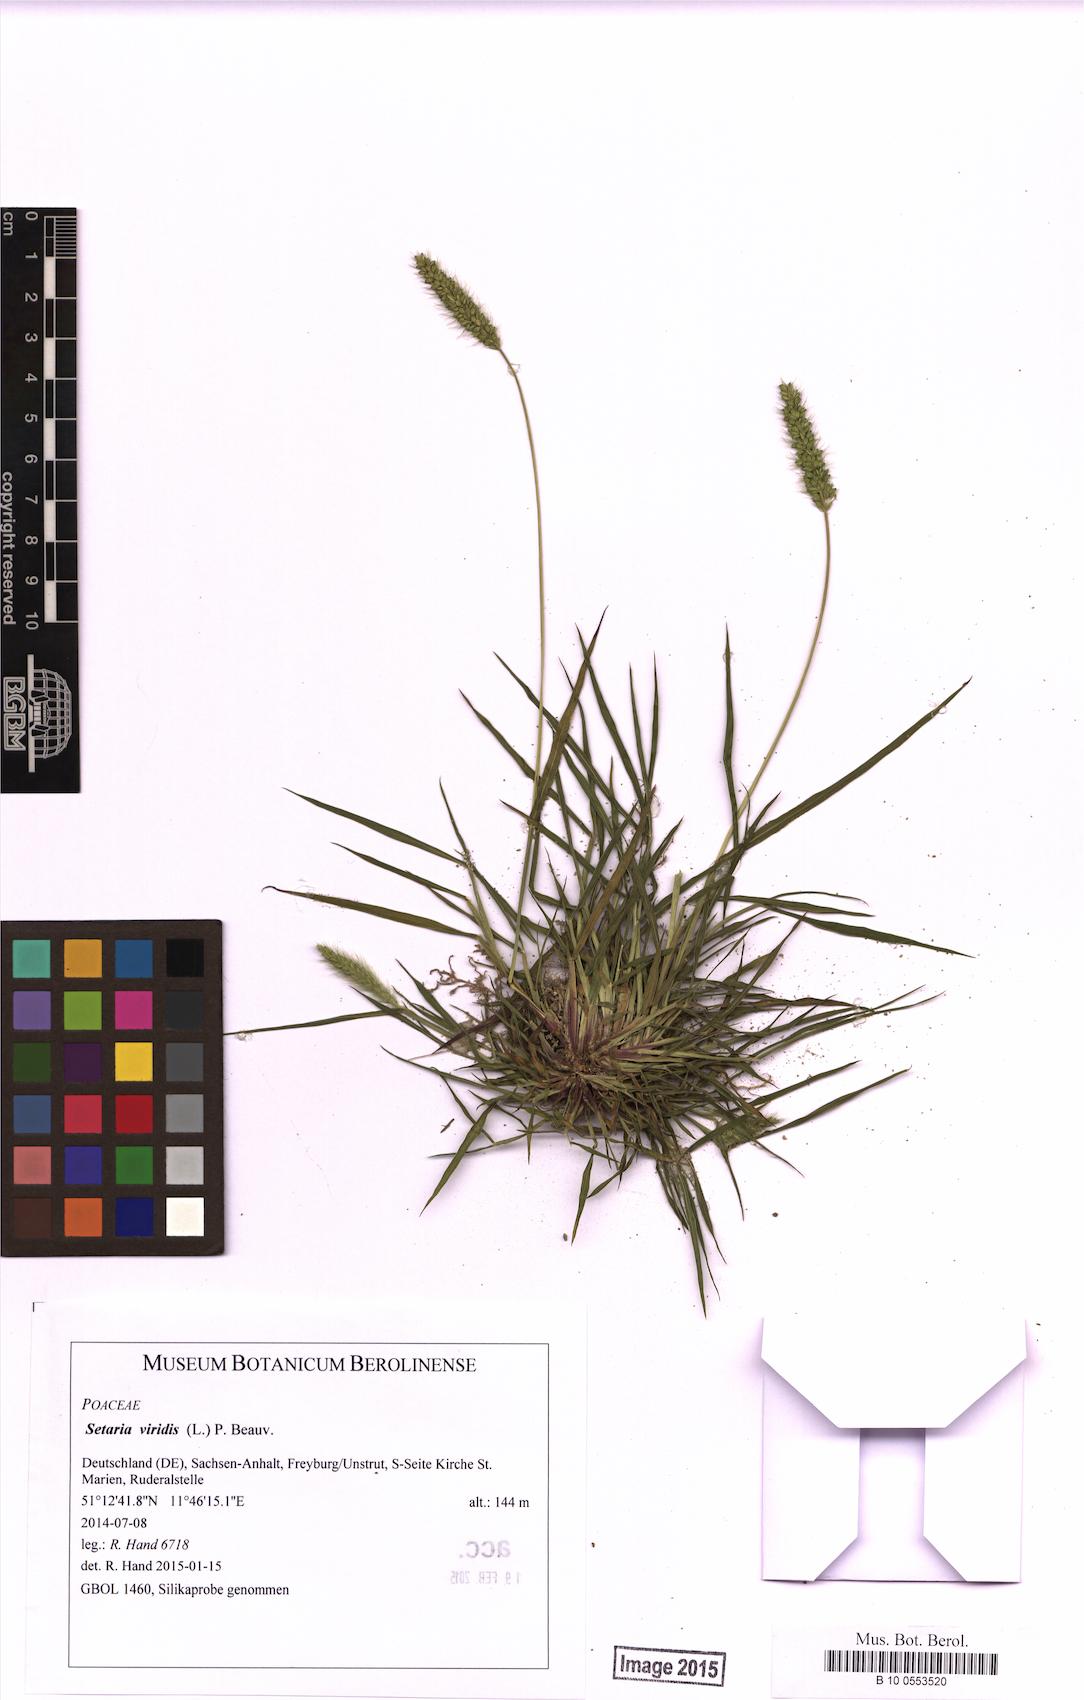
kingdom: Plantae
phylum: Tracheophyta
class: Liliopsida
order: Poales
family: Poaceae
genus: Setaria
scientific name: Setaria viridis
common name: Green bristlegrass
